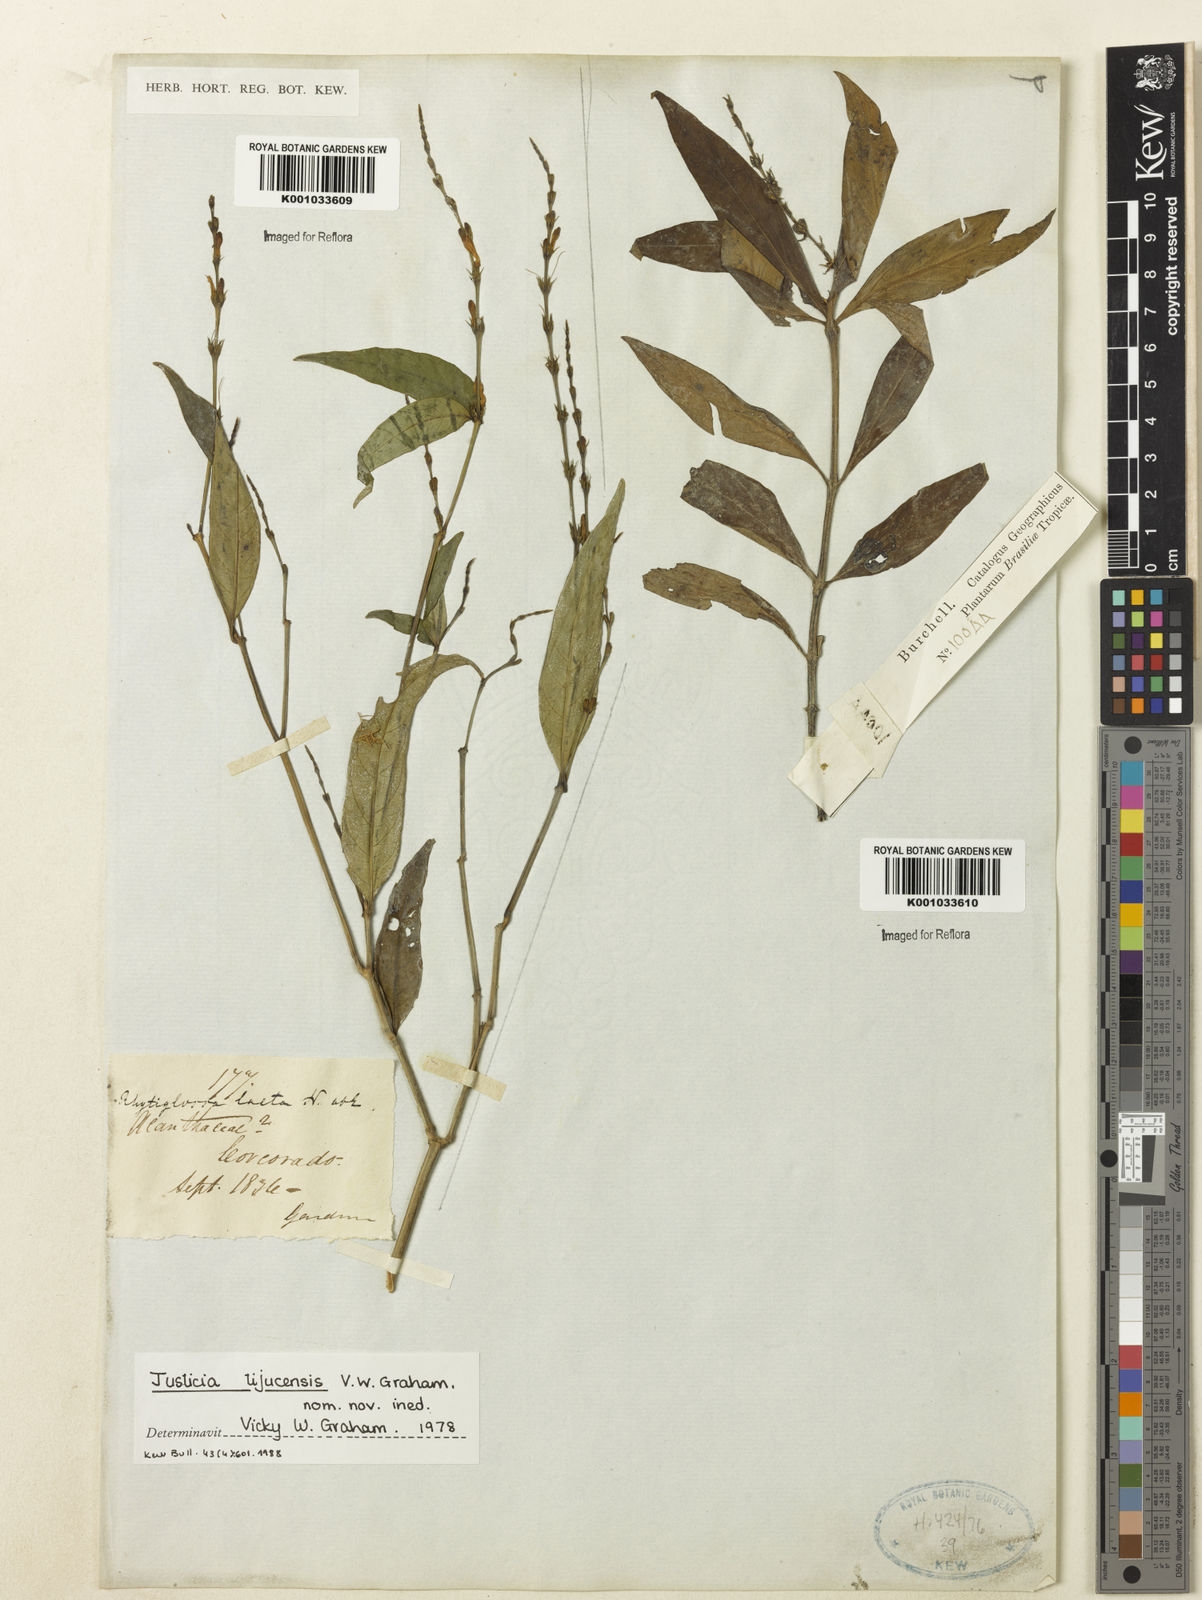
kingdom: Plantae
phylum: Tracheophyta
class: Magnoliopsida
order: Lamiales
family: Acanthaceae
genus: Dianthera
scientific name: Dianthera laeta
